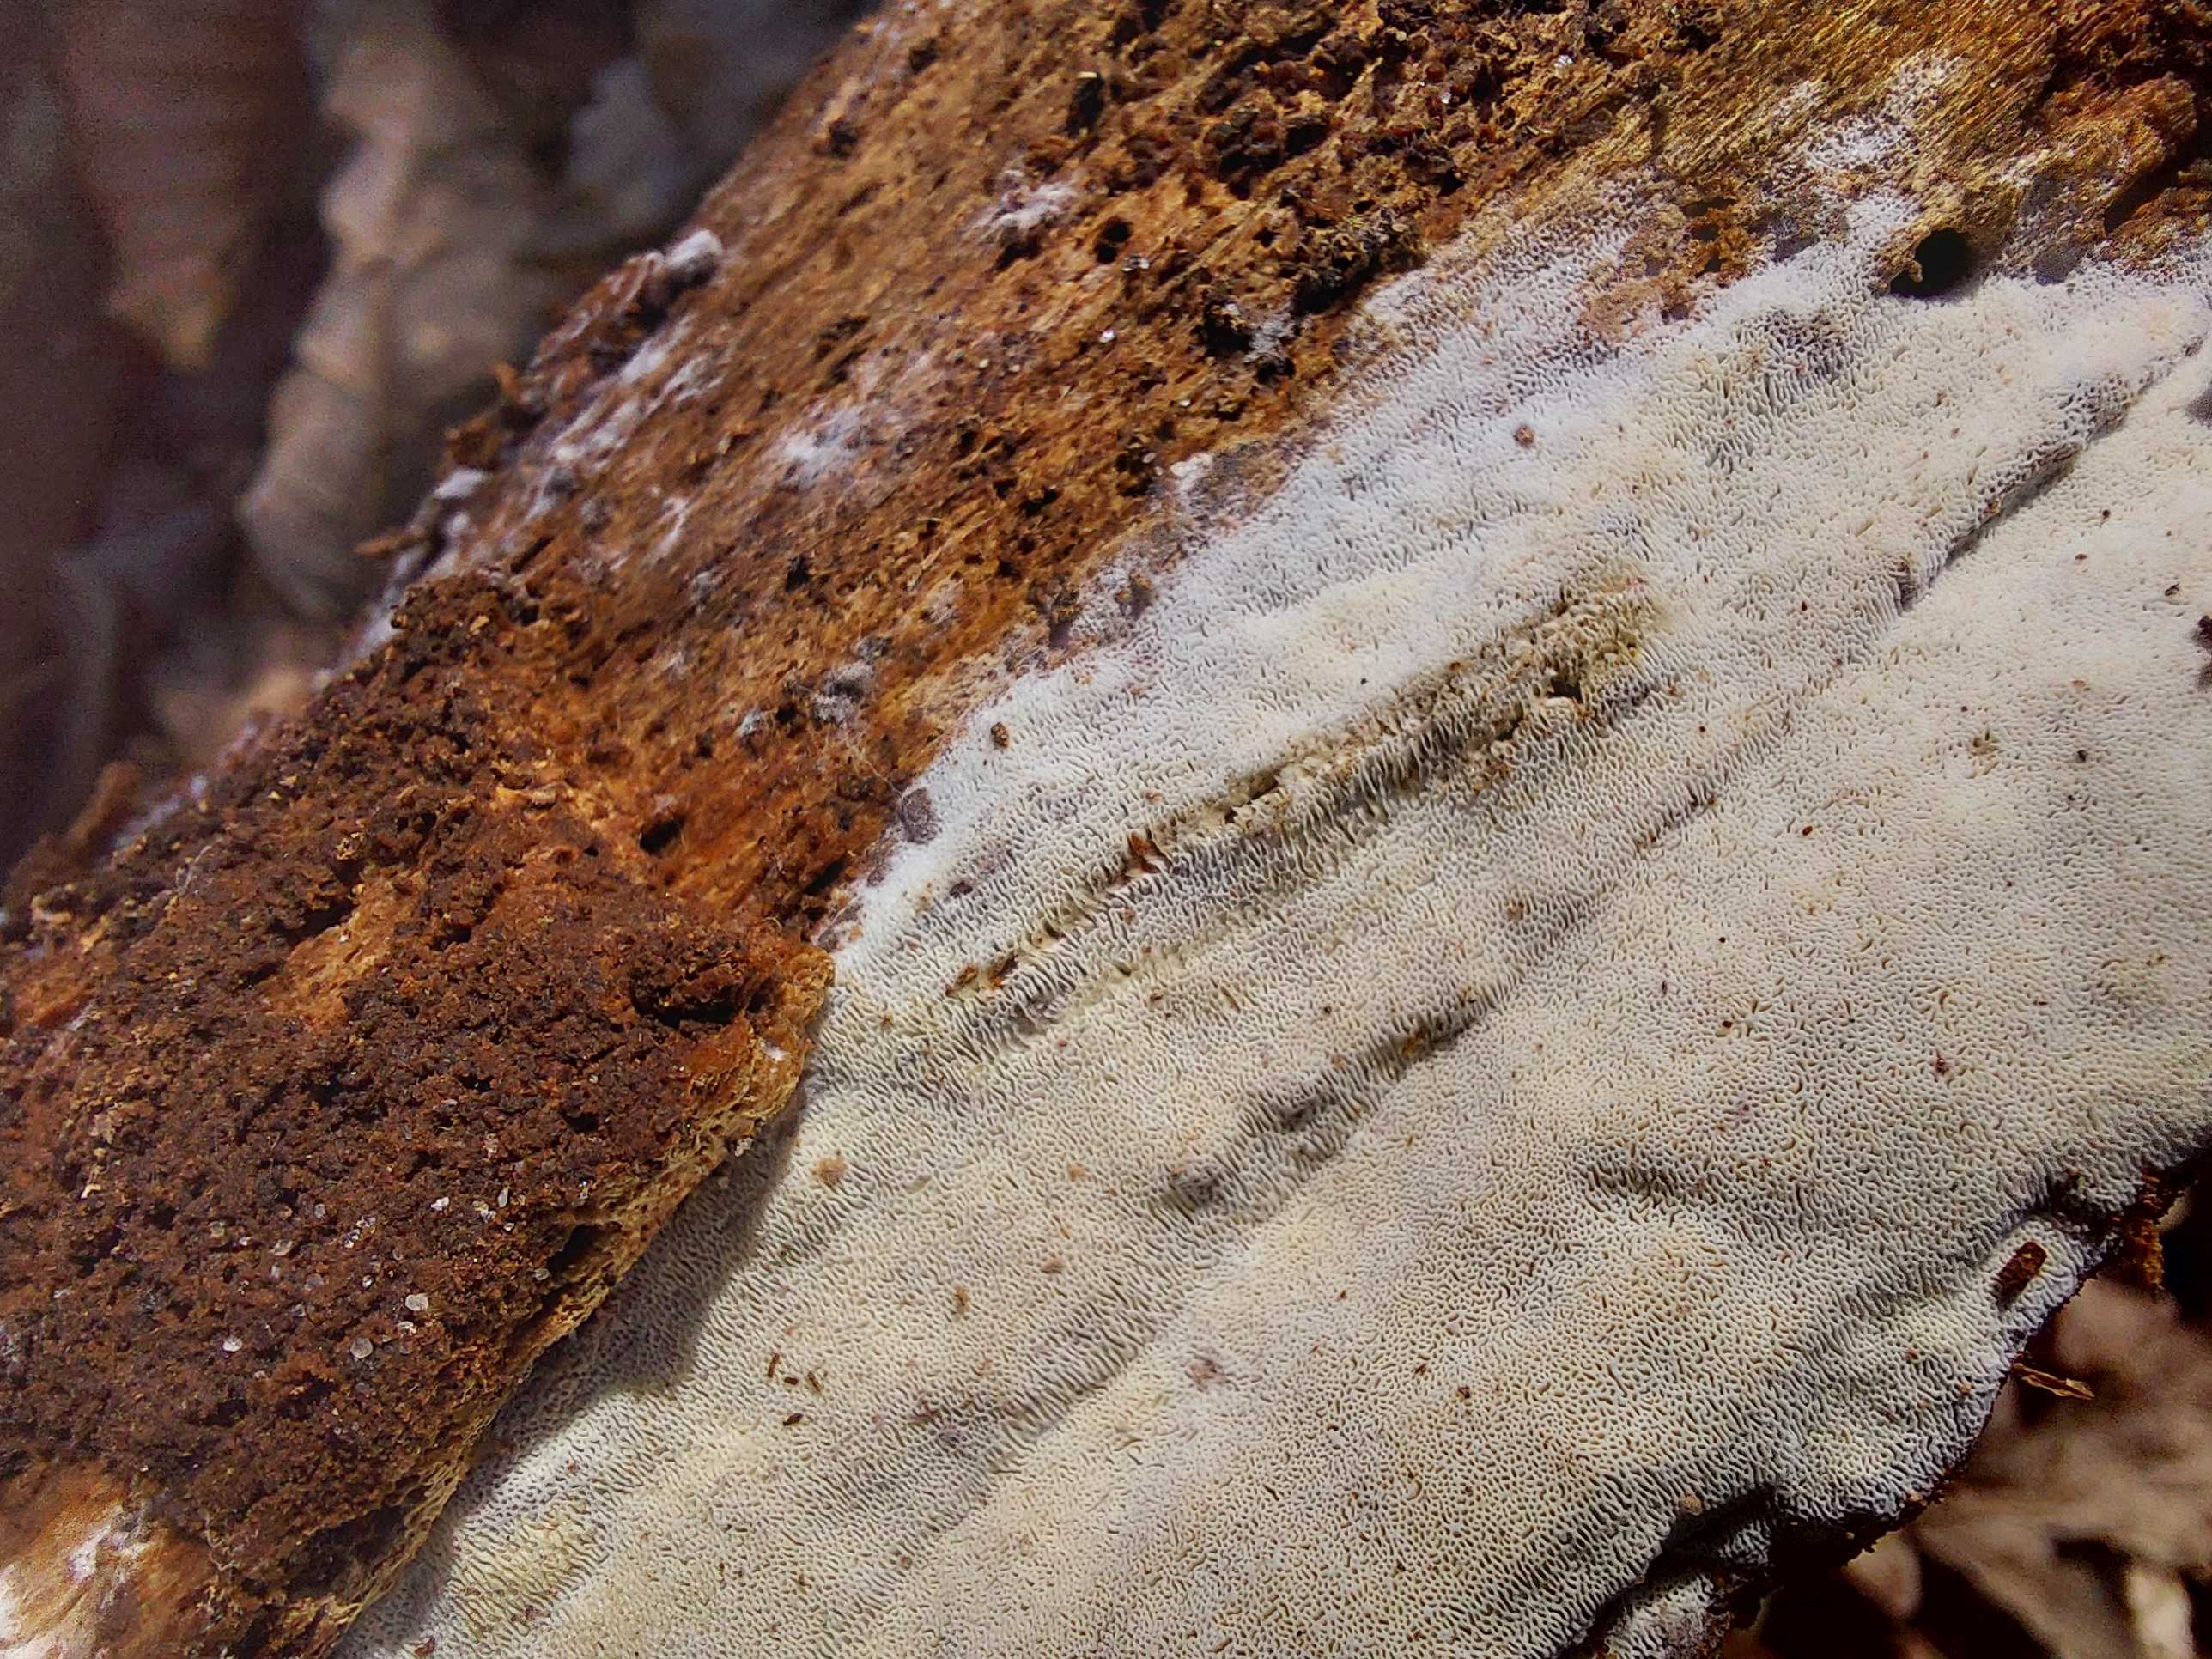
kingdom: Fungi
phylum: Basidiomycota
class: Agaricomycetes
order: Polyporales
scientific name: Polyporales
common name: poresvampordenen
